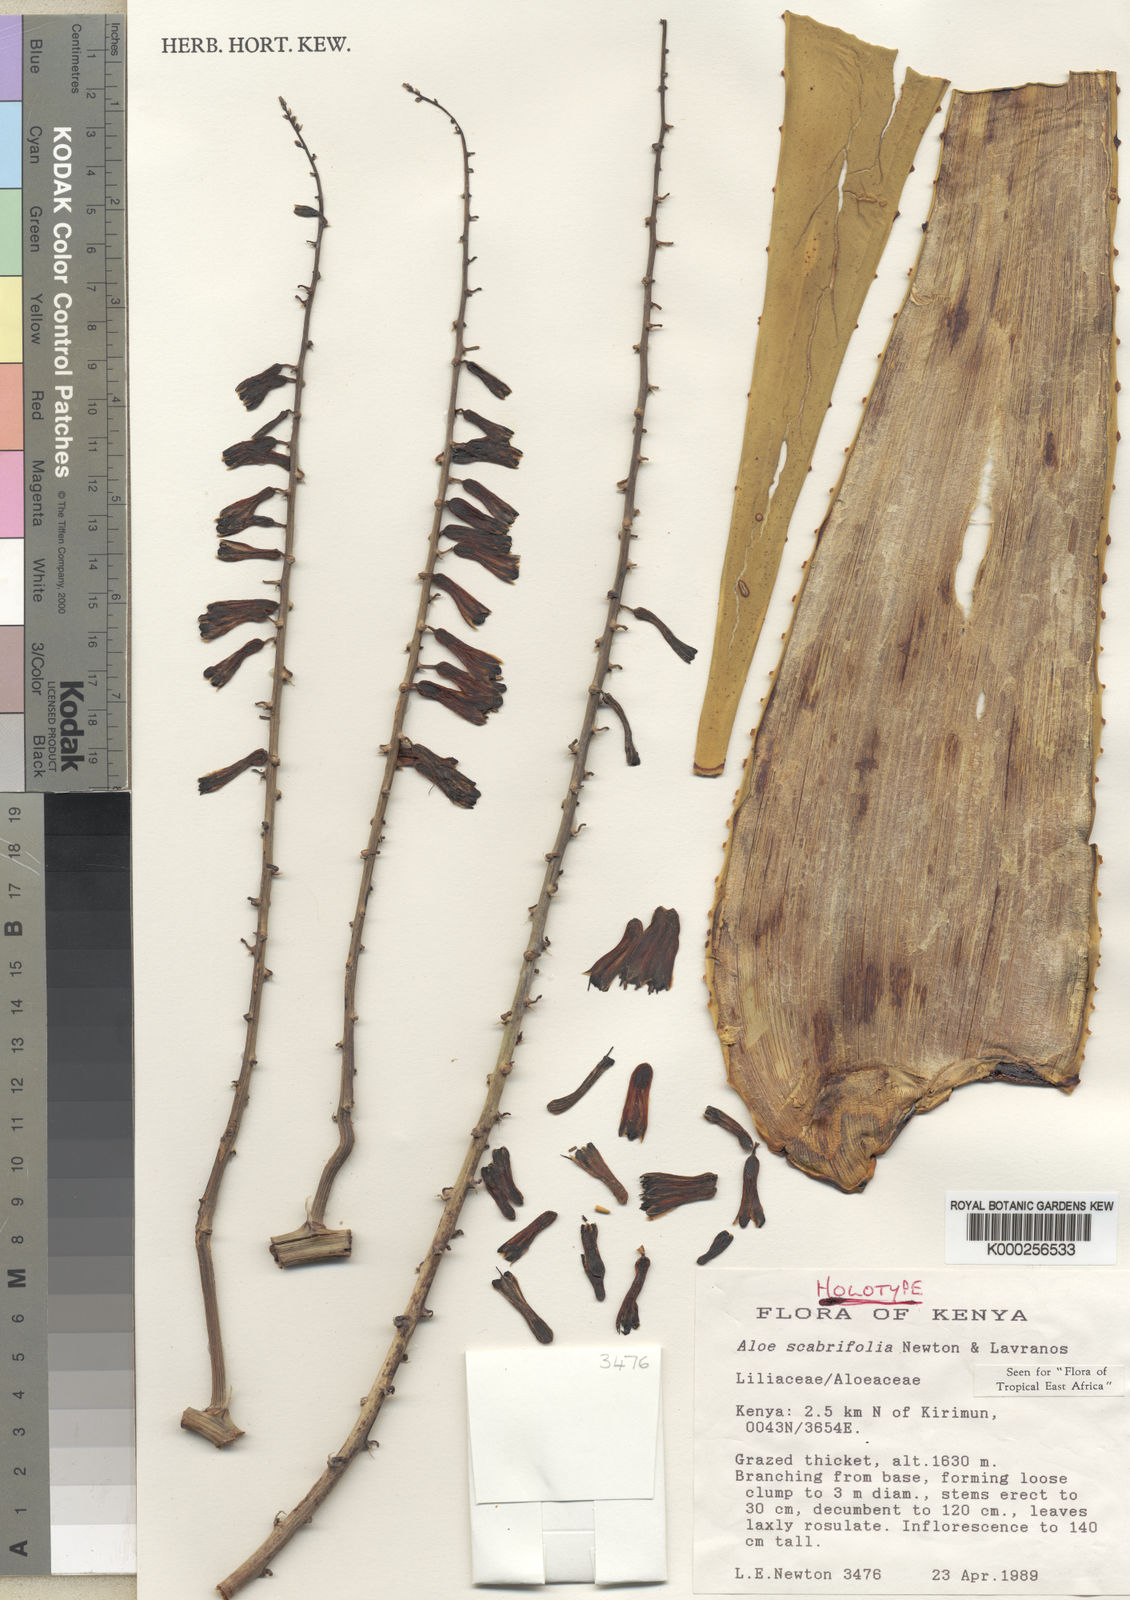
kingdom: Plantae
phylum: Tracheophyta
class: Liliopsida
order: Asparagales
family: Asphodelaceae
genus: Aloe
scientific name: Aloe scabrifolia
